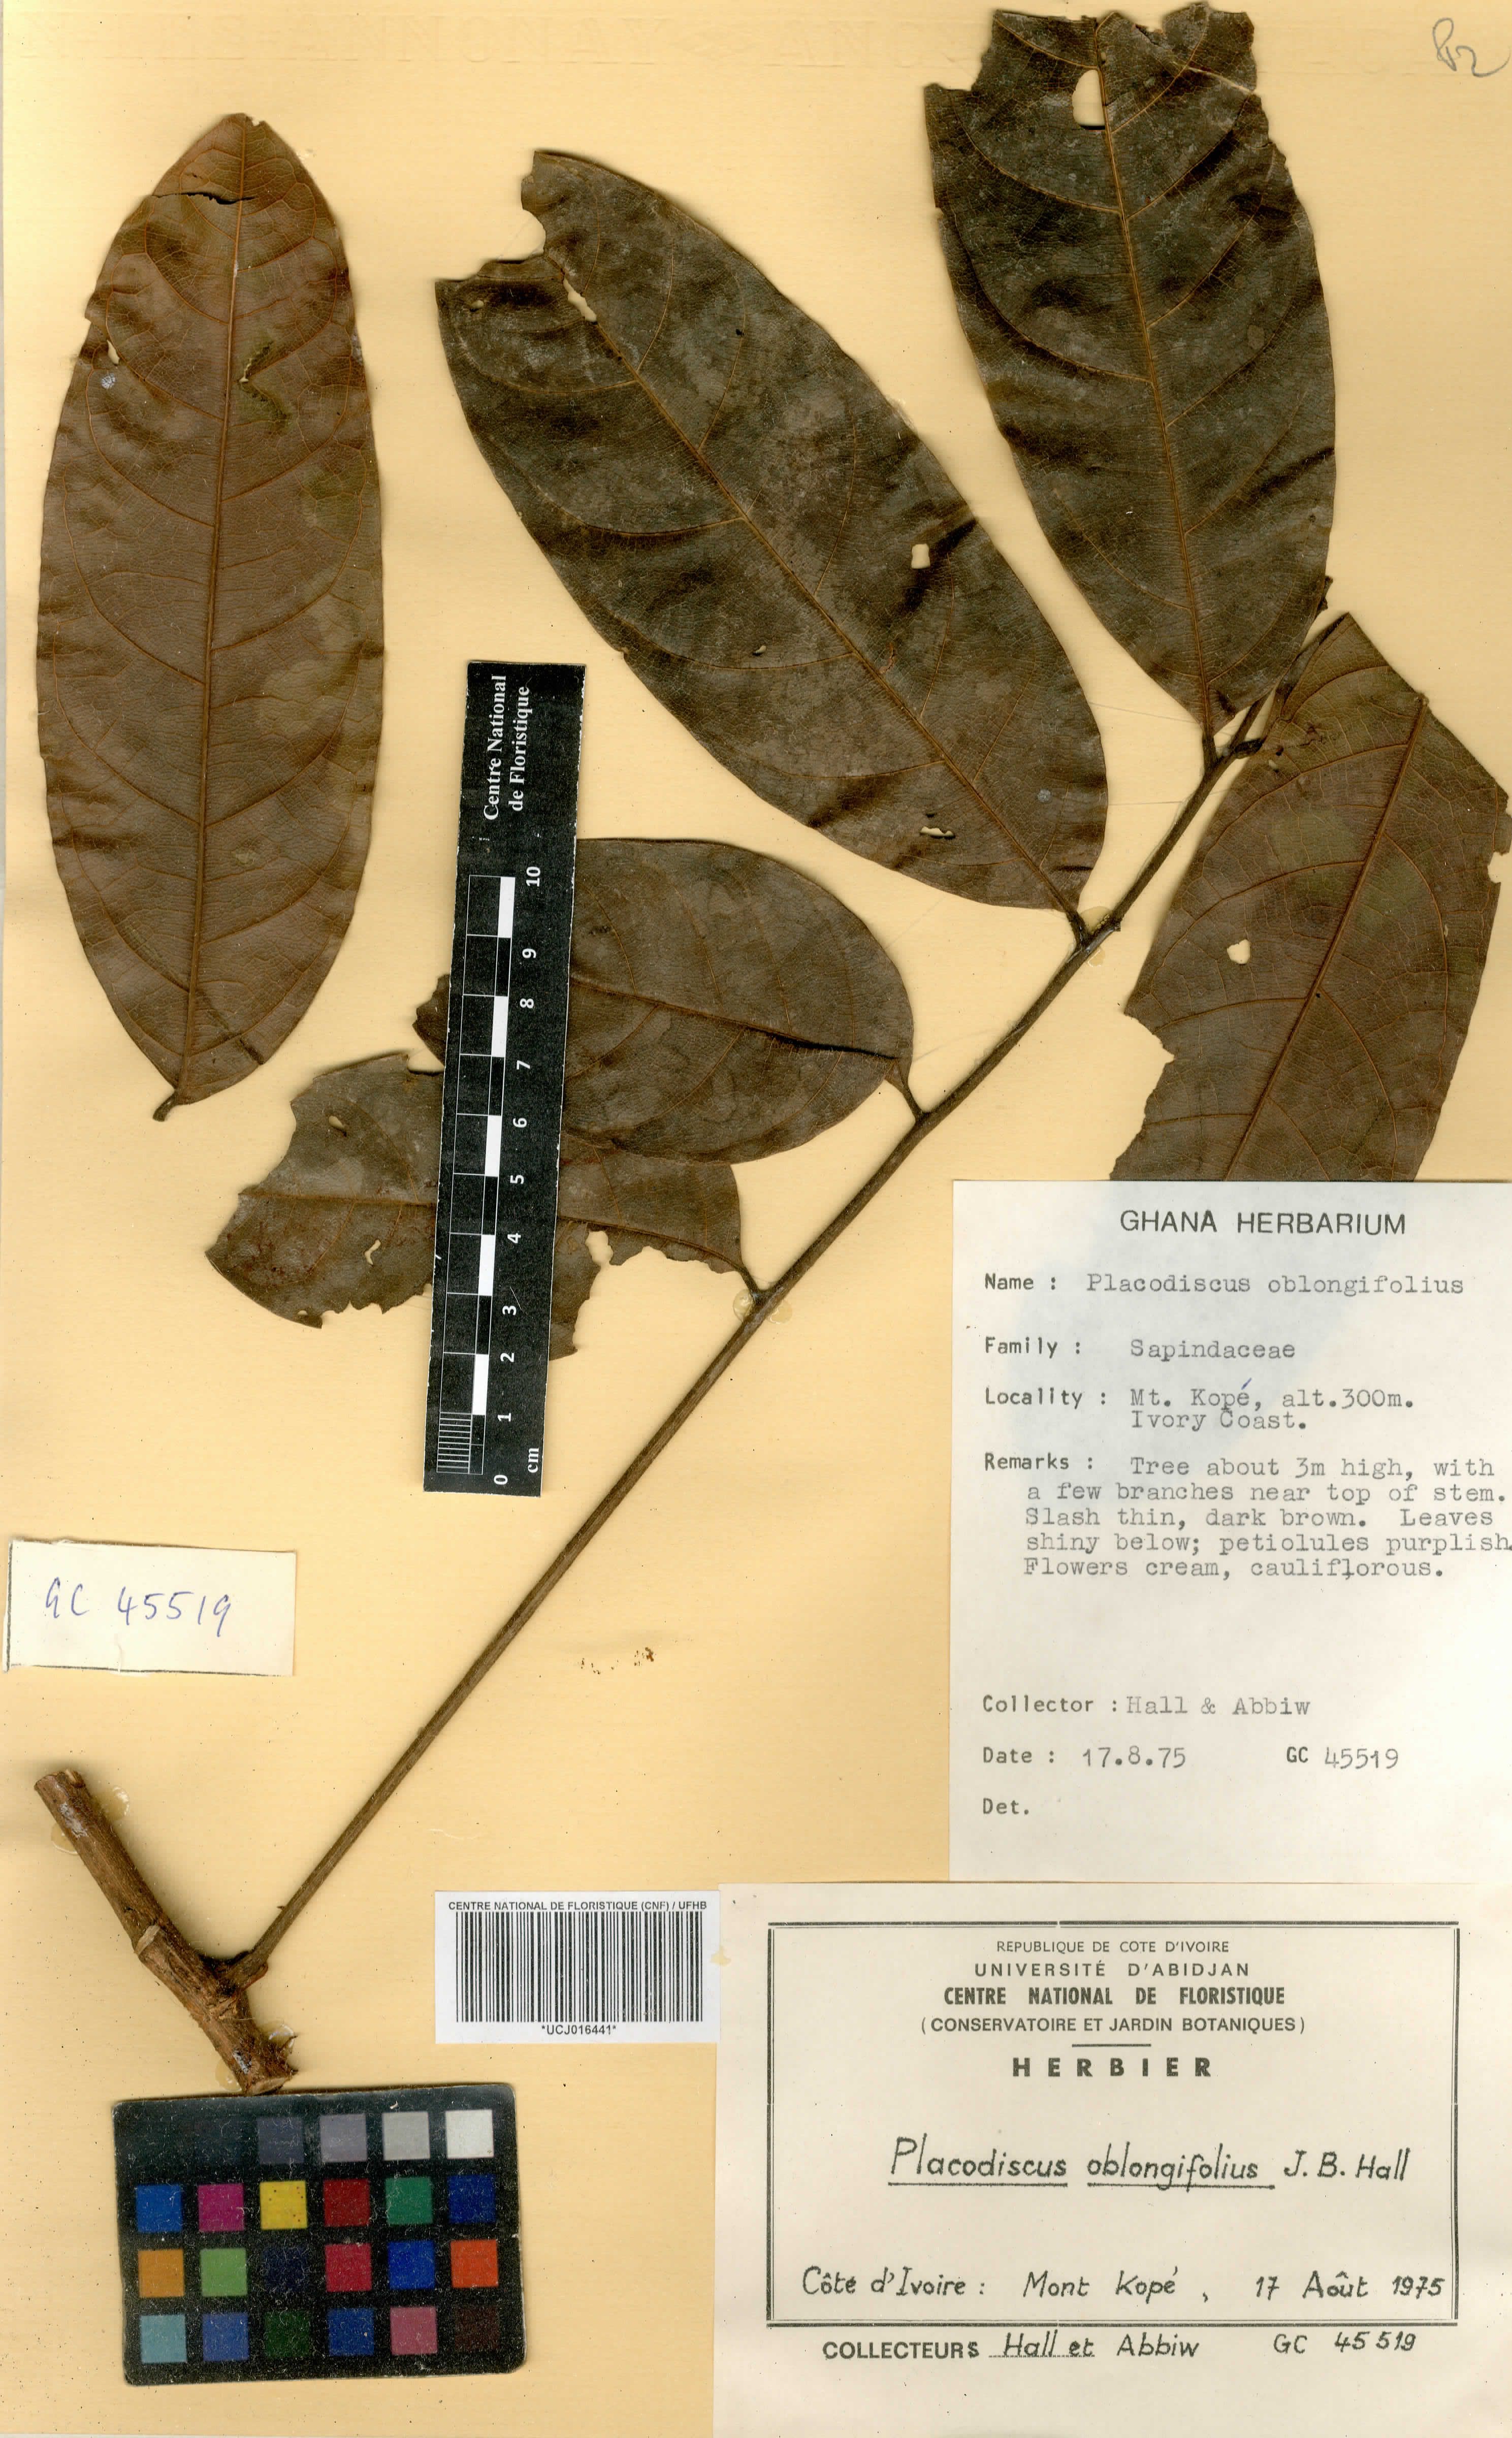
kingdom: Plantae
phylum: Tracheophyta
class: Magnoliopsida
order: Sapindales
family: Sapindaceae
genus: Placodiscus
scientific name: Placodiscus oblongifolius
